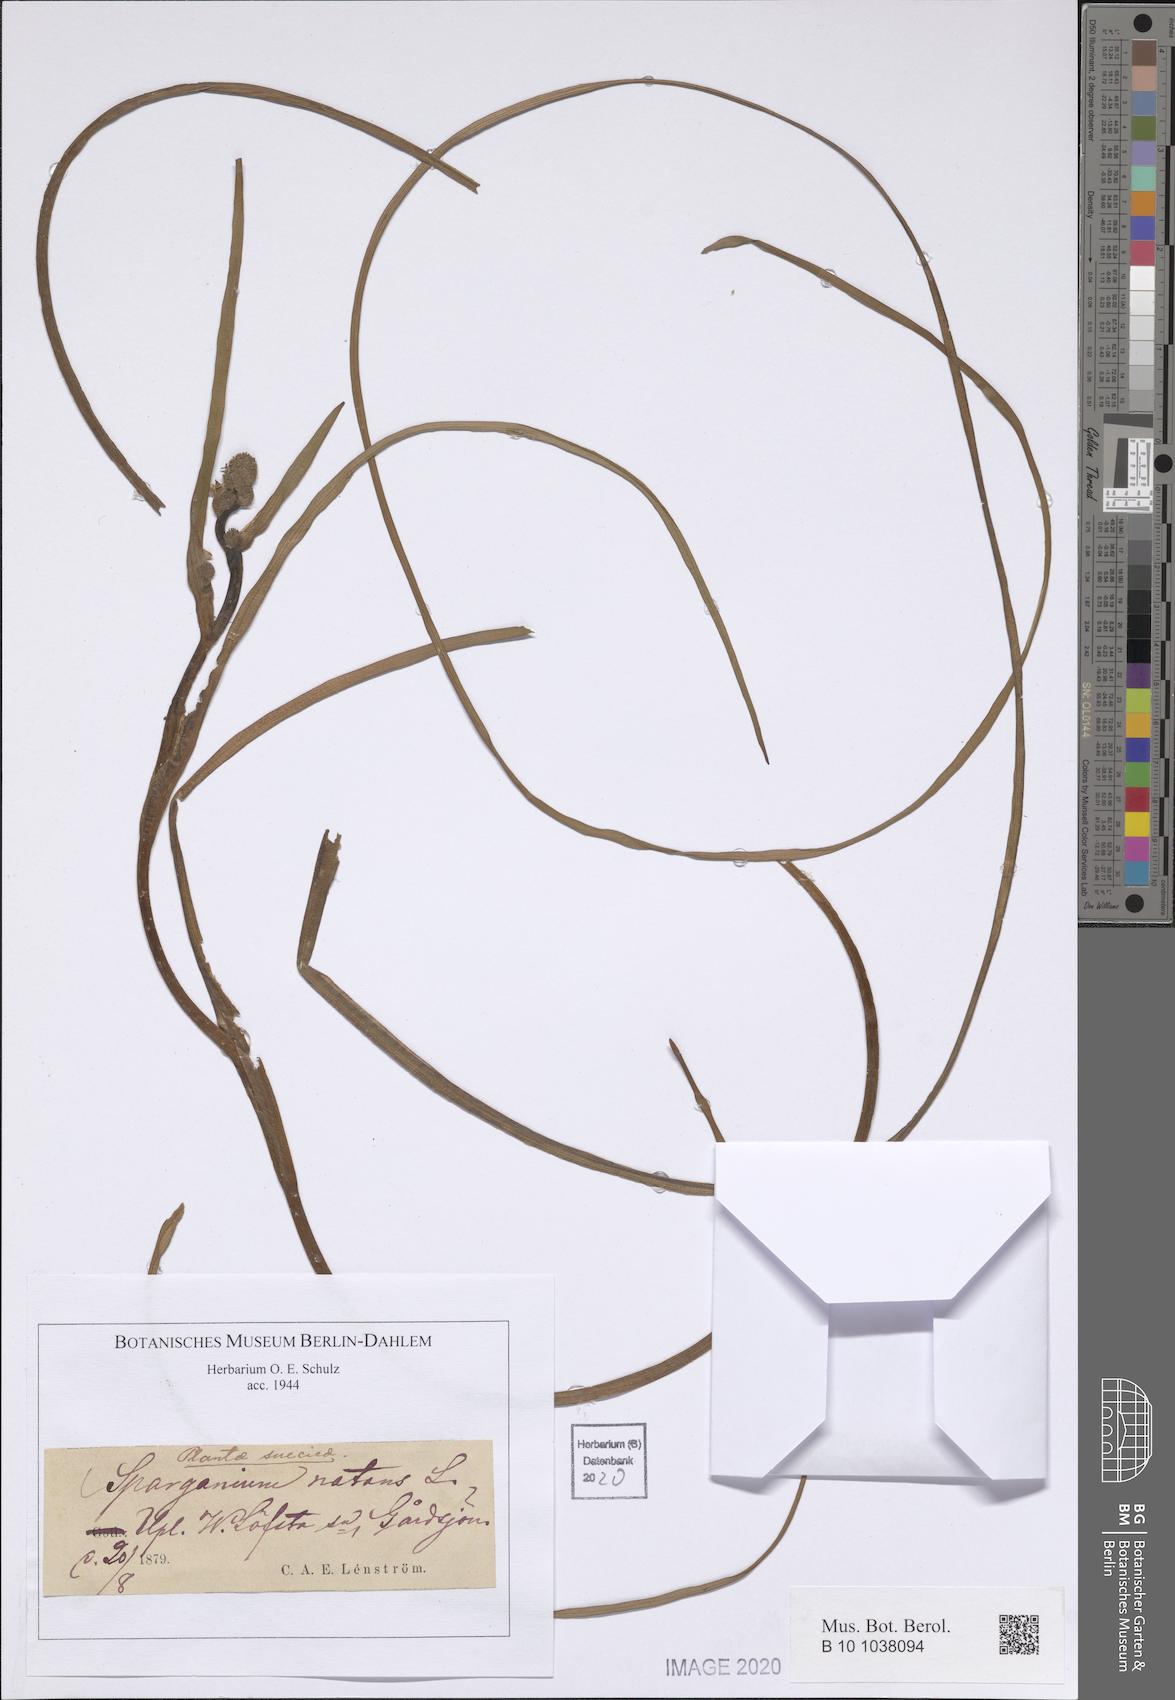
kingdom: Plantae
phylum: Tracheophyta
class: Liliopsida
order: Poales
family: Typhaceae
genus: Sparganium
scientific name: Sparganium natans
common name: Least bur-reed
